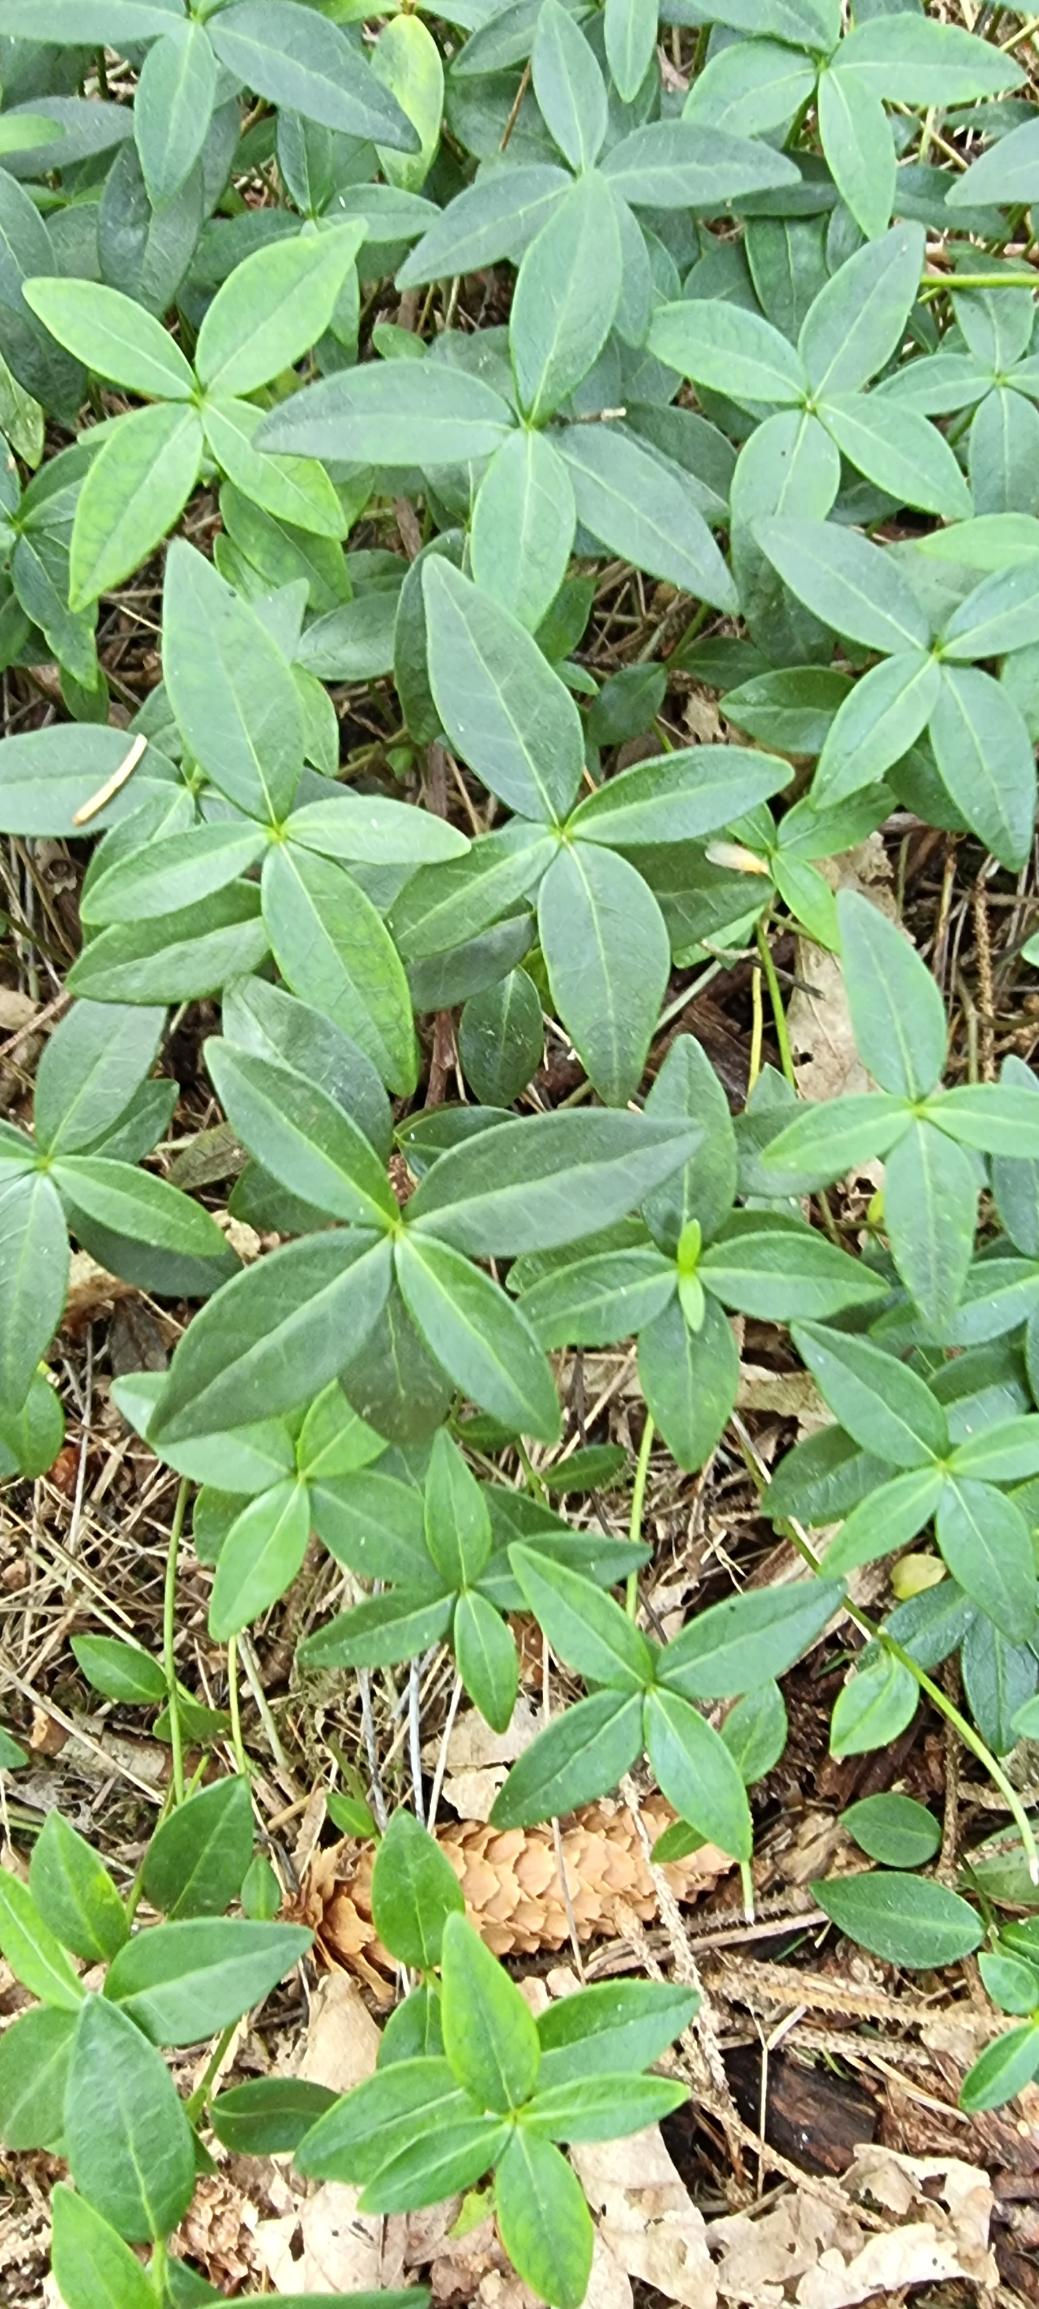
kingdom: Plantae
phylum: Tracheophyta
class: Magnoliopsida
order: Gentianales
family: Apocynaceae
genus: Vinca
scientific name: Vinca minor
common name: Liden singrøn
